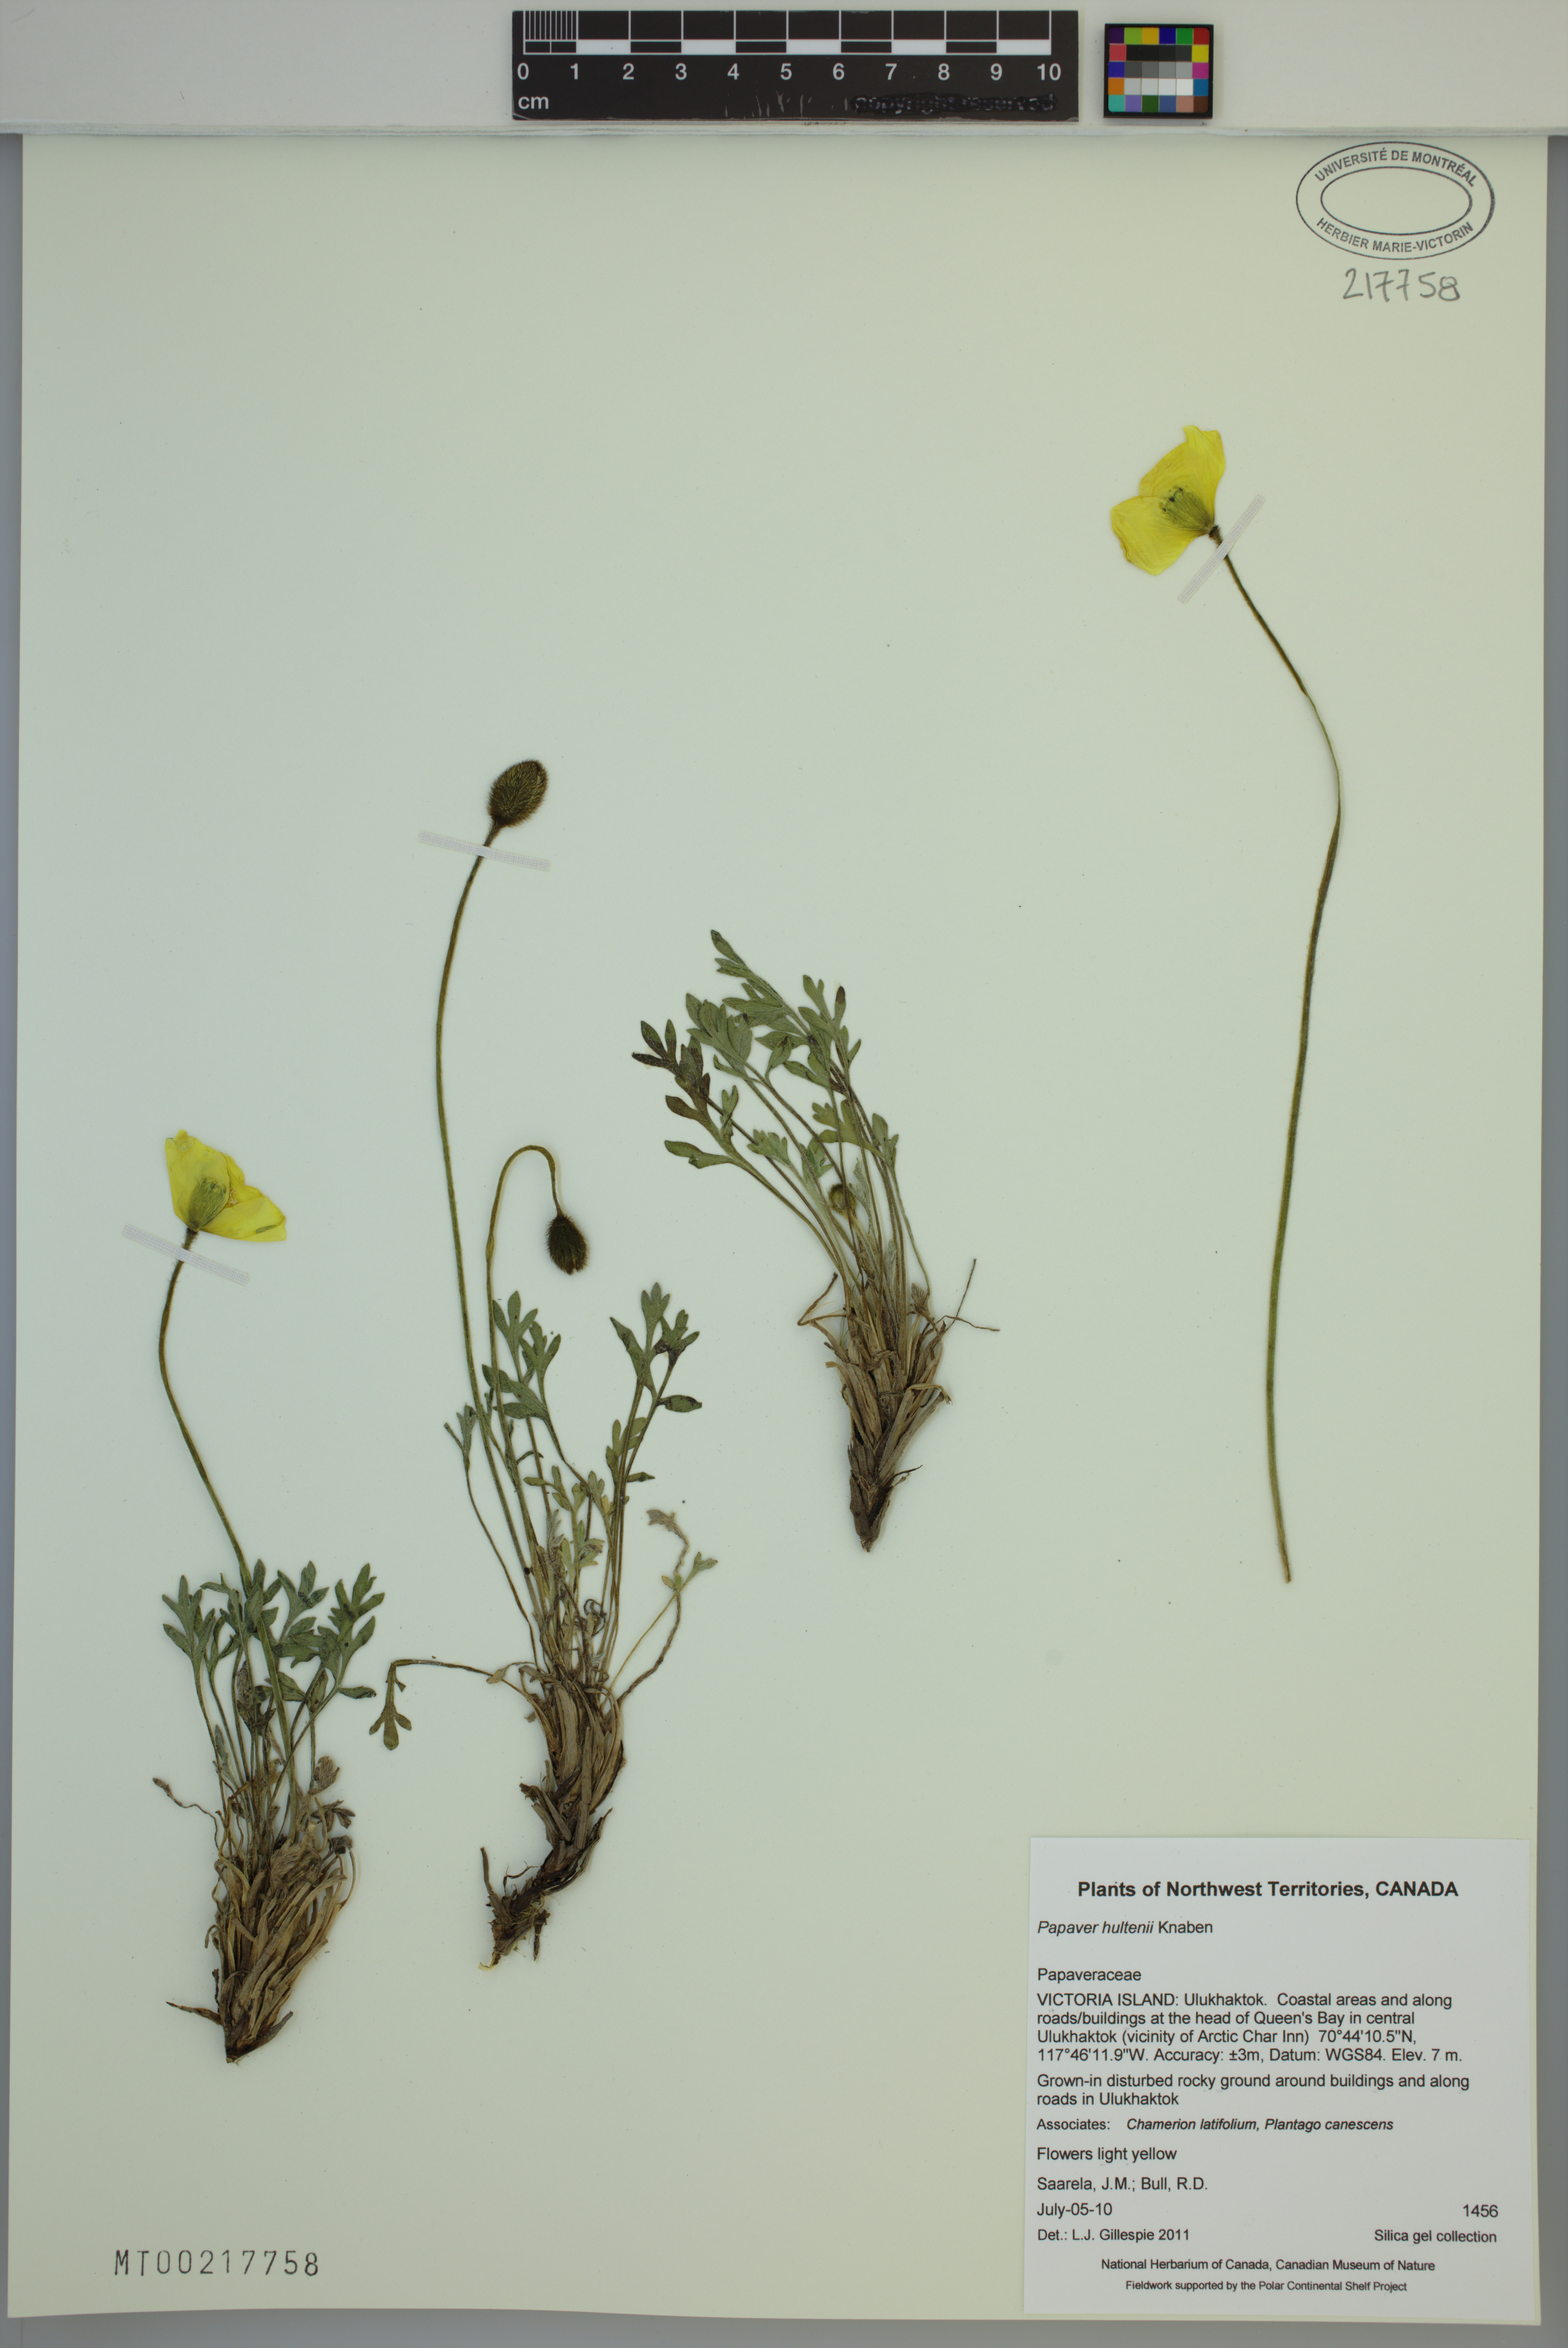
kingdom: Plantae
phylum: Tracheophyta
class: Magnoliopsida
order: Ranunculales
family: Papaveraceae
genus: Papaver
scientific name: Papaver lapponicum
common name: Lapland poppy
